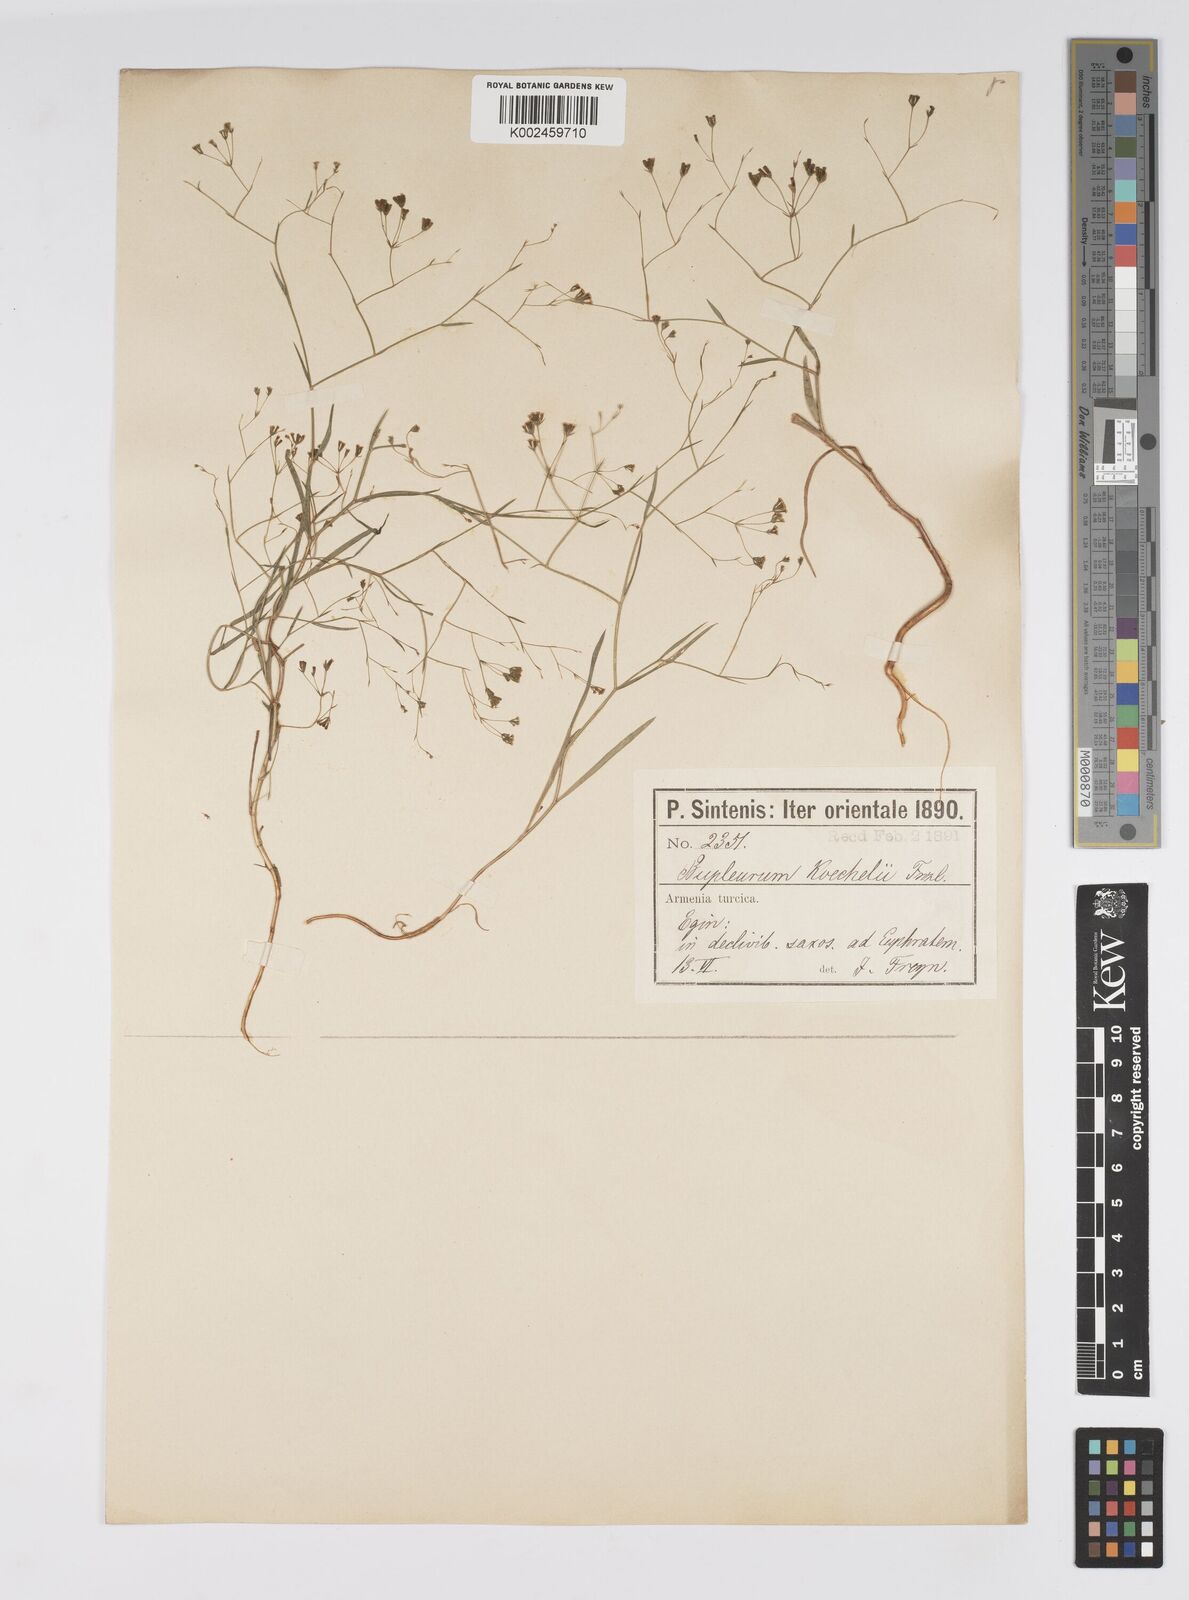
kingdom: Plantae
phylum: Tracheophyta
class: Magnoliopsida
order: Apiales
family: Apiaceae
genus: Bupleurum
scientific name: Bupleurum koechelii
